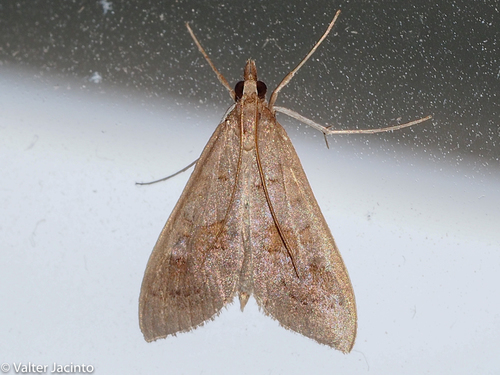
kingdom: Animalia
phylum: Arthropoda
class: Insecta
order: Lepidoptera
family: Crambidae
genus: Mecyna
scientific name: Mecyna asinalis
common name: Coastal pearl
